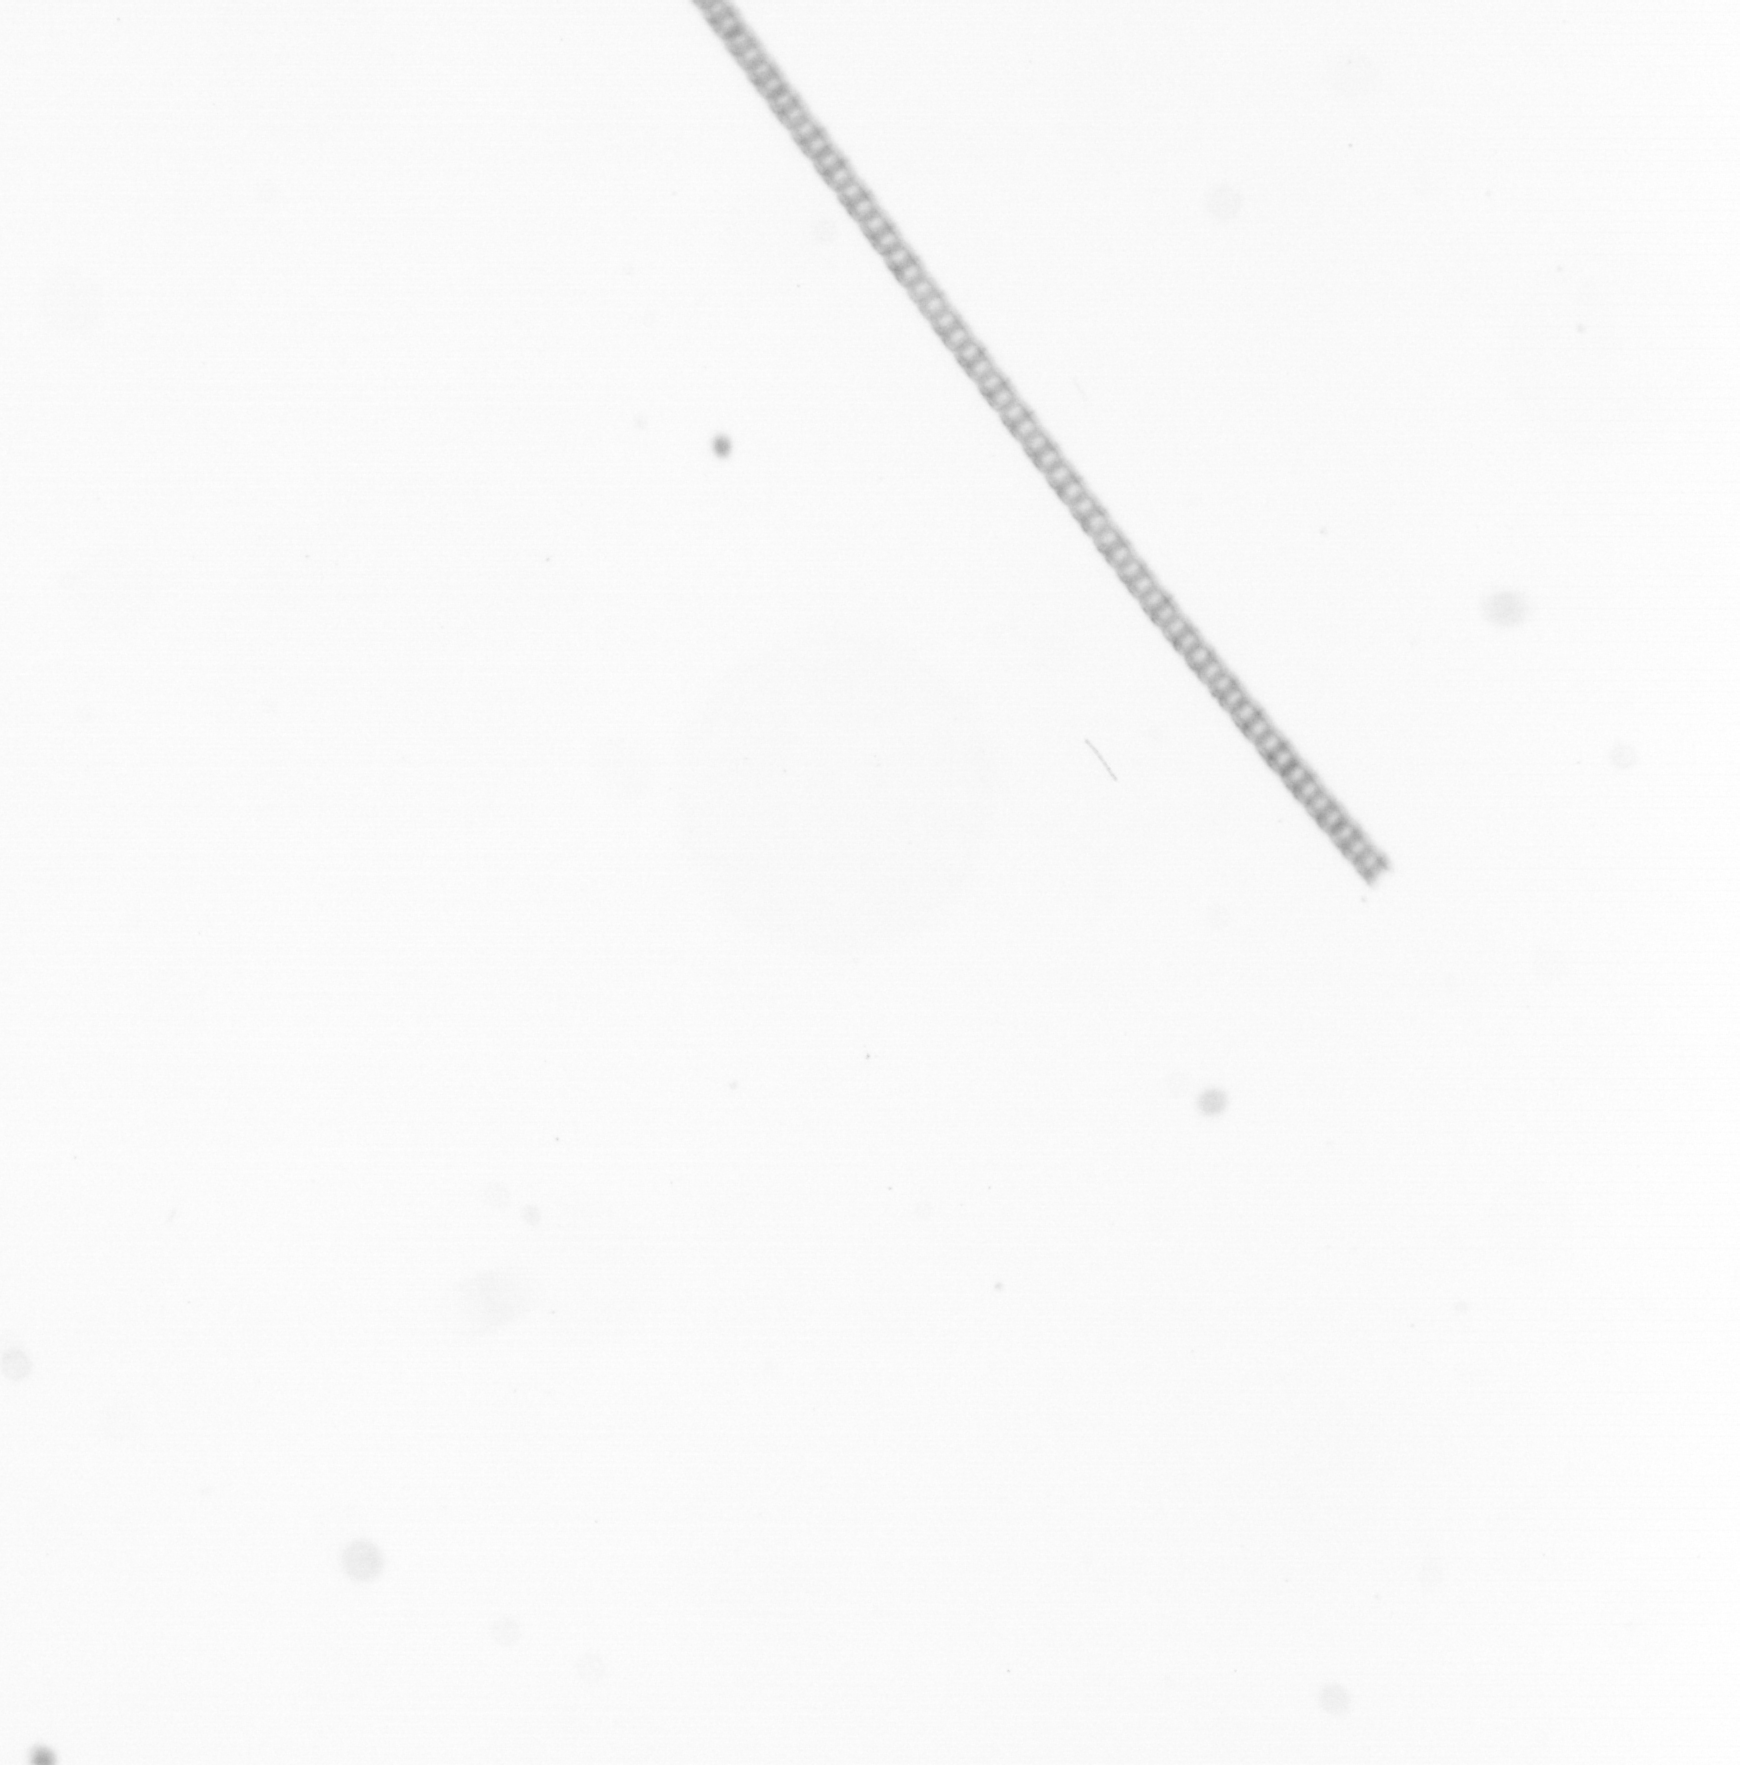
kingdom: Chromista
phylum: Ochrophyta
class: Bacillariophyceae
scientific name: Bacillariophyceae
